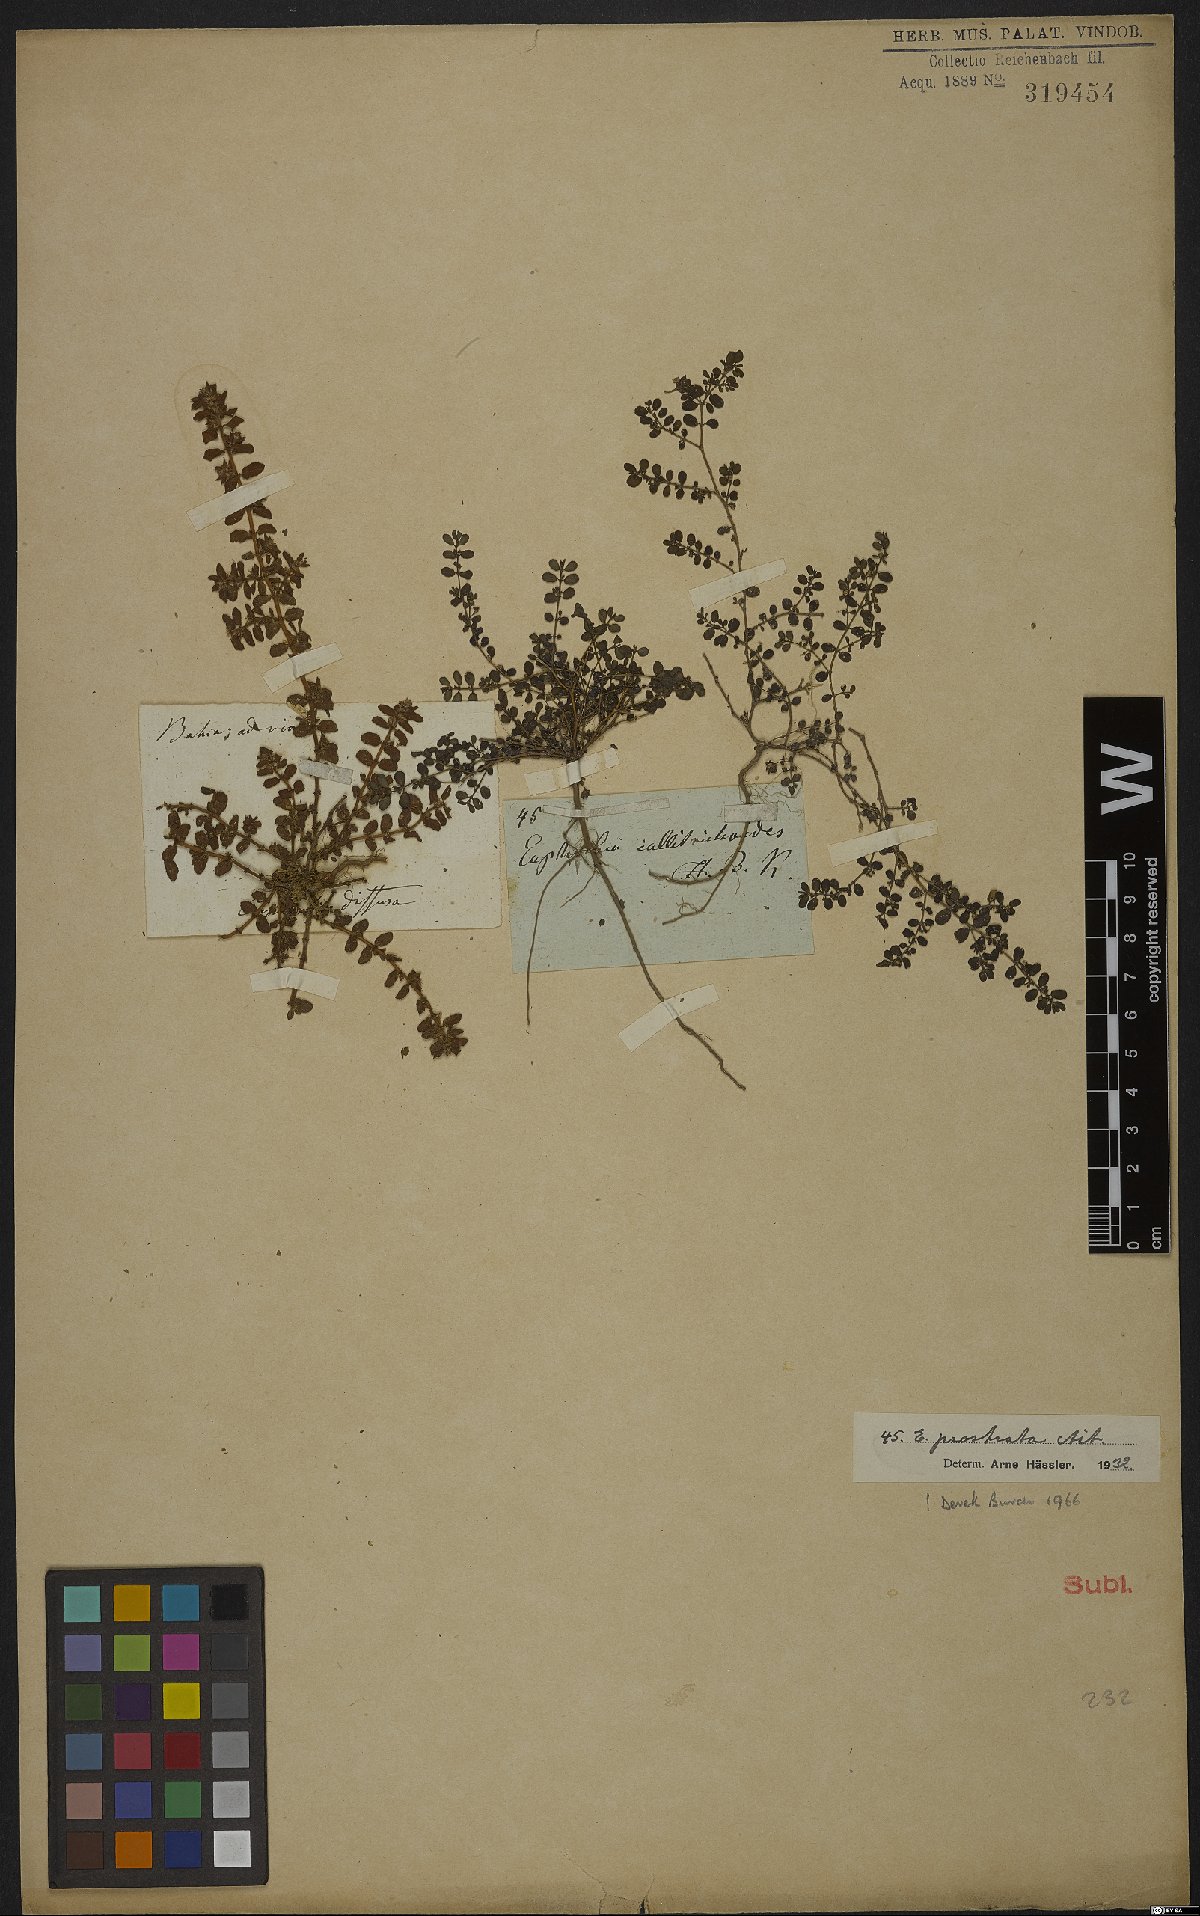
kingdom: Plantae
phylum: Tracheophyta
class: Magnoliopsida
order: Malpighiales
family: Euphorbiaceae
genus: Euphorbia
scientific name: Euphorbia prostrata
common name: Prostrate sandmat
